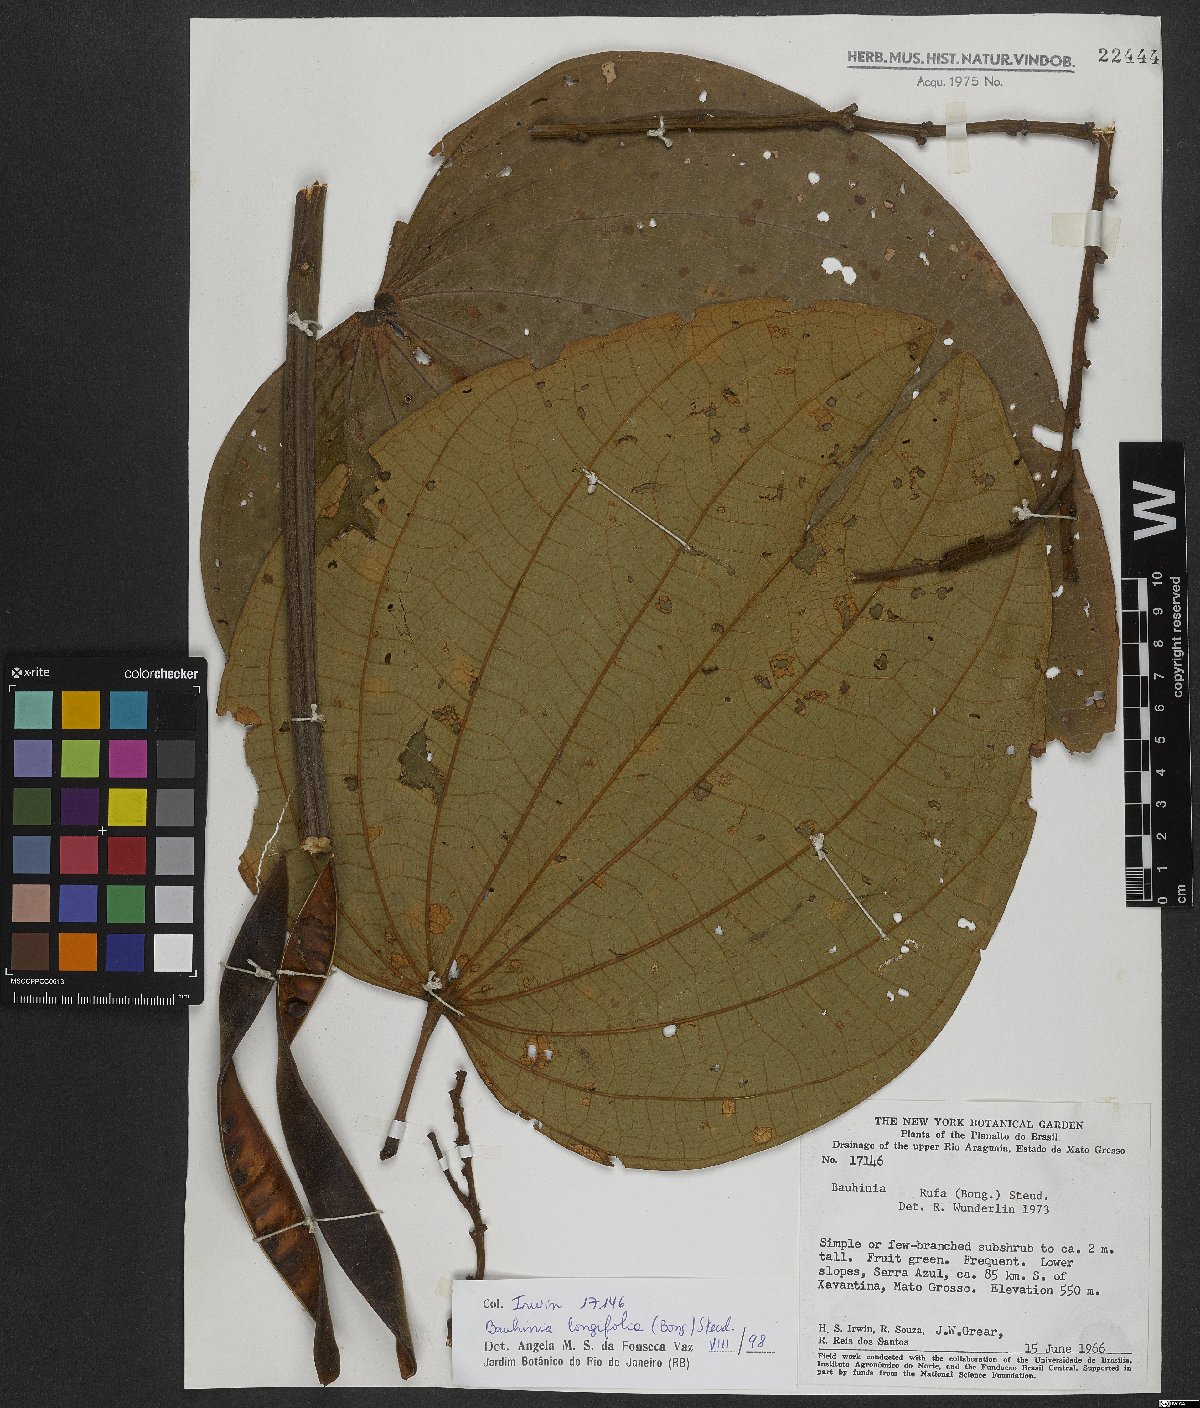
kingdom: Plantae
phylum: Tracheophyta
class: Magnoliopsida
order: Fabales
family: Fabaceae
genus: Bauhinia
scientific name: Bauhinia longifolia
